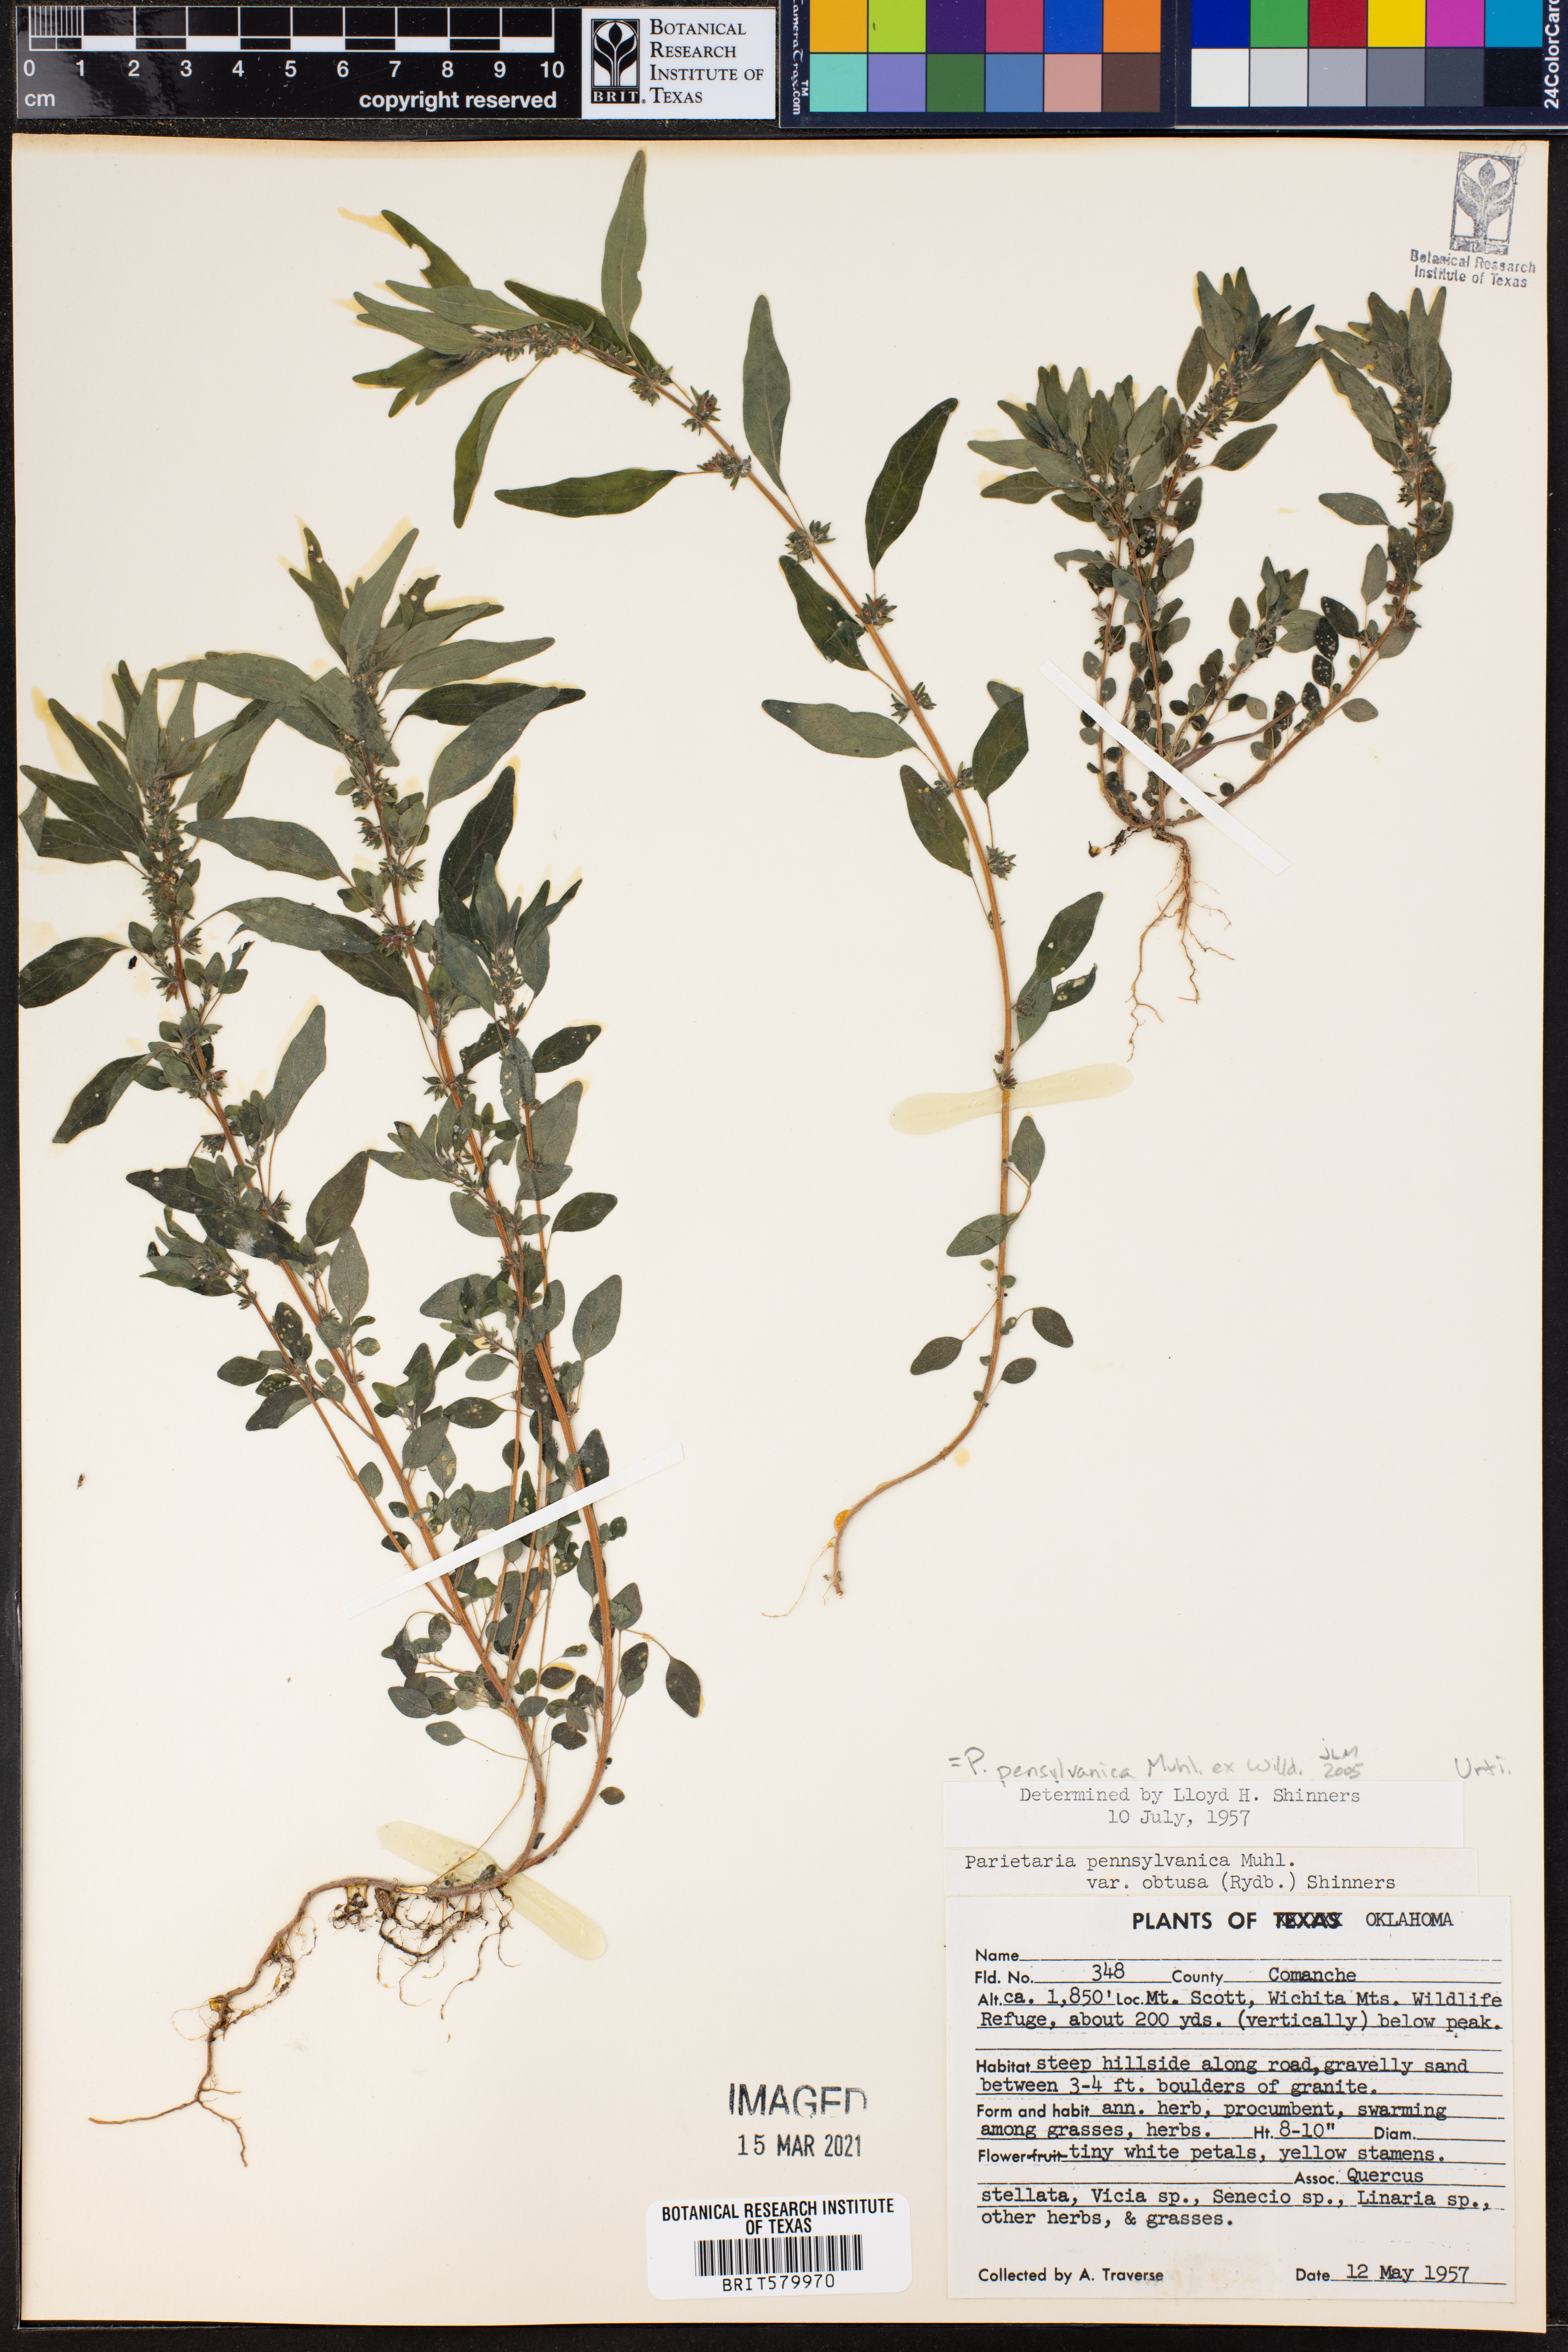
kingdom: Plantae
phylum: Tracheophyta
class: Magnoliopsida
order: Rosales
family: Urticaceae
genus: Parietaria
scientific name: Parietaria pensylvanica
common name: Pennsylvania pellitory
